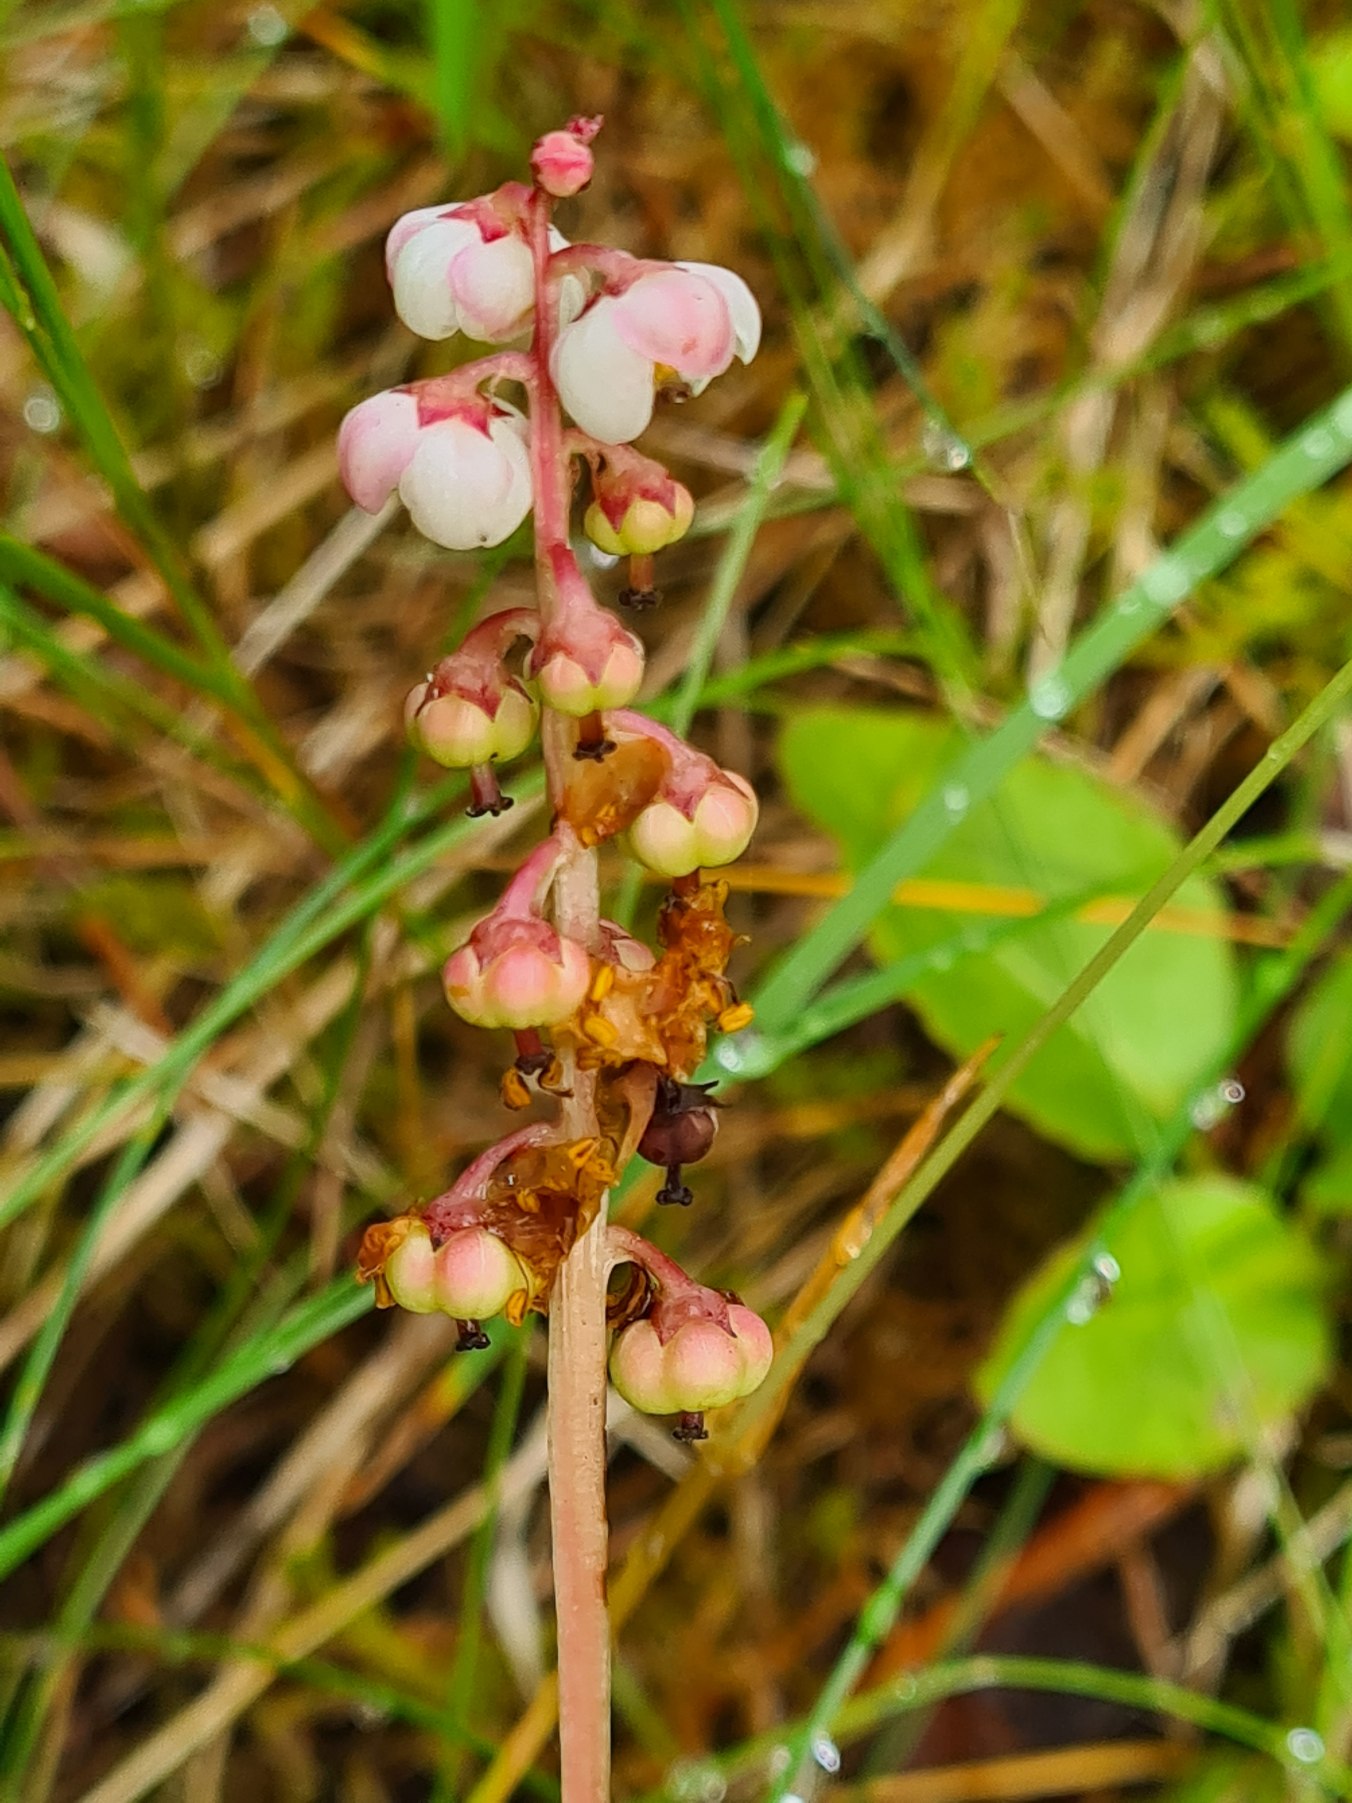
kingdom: Plantae
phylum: Tracheophyta
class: Magnoliopsida
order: Ericales
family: Ericaceae
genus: Pyrola
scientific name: Pyrola minor
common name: Liden vintergrøn
